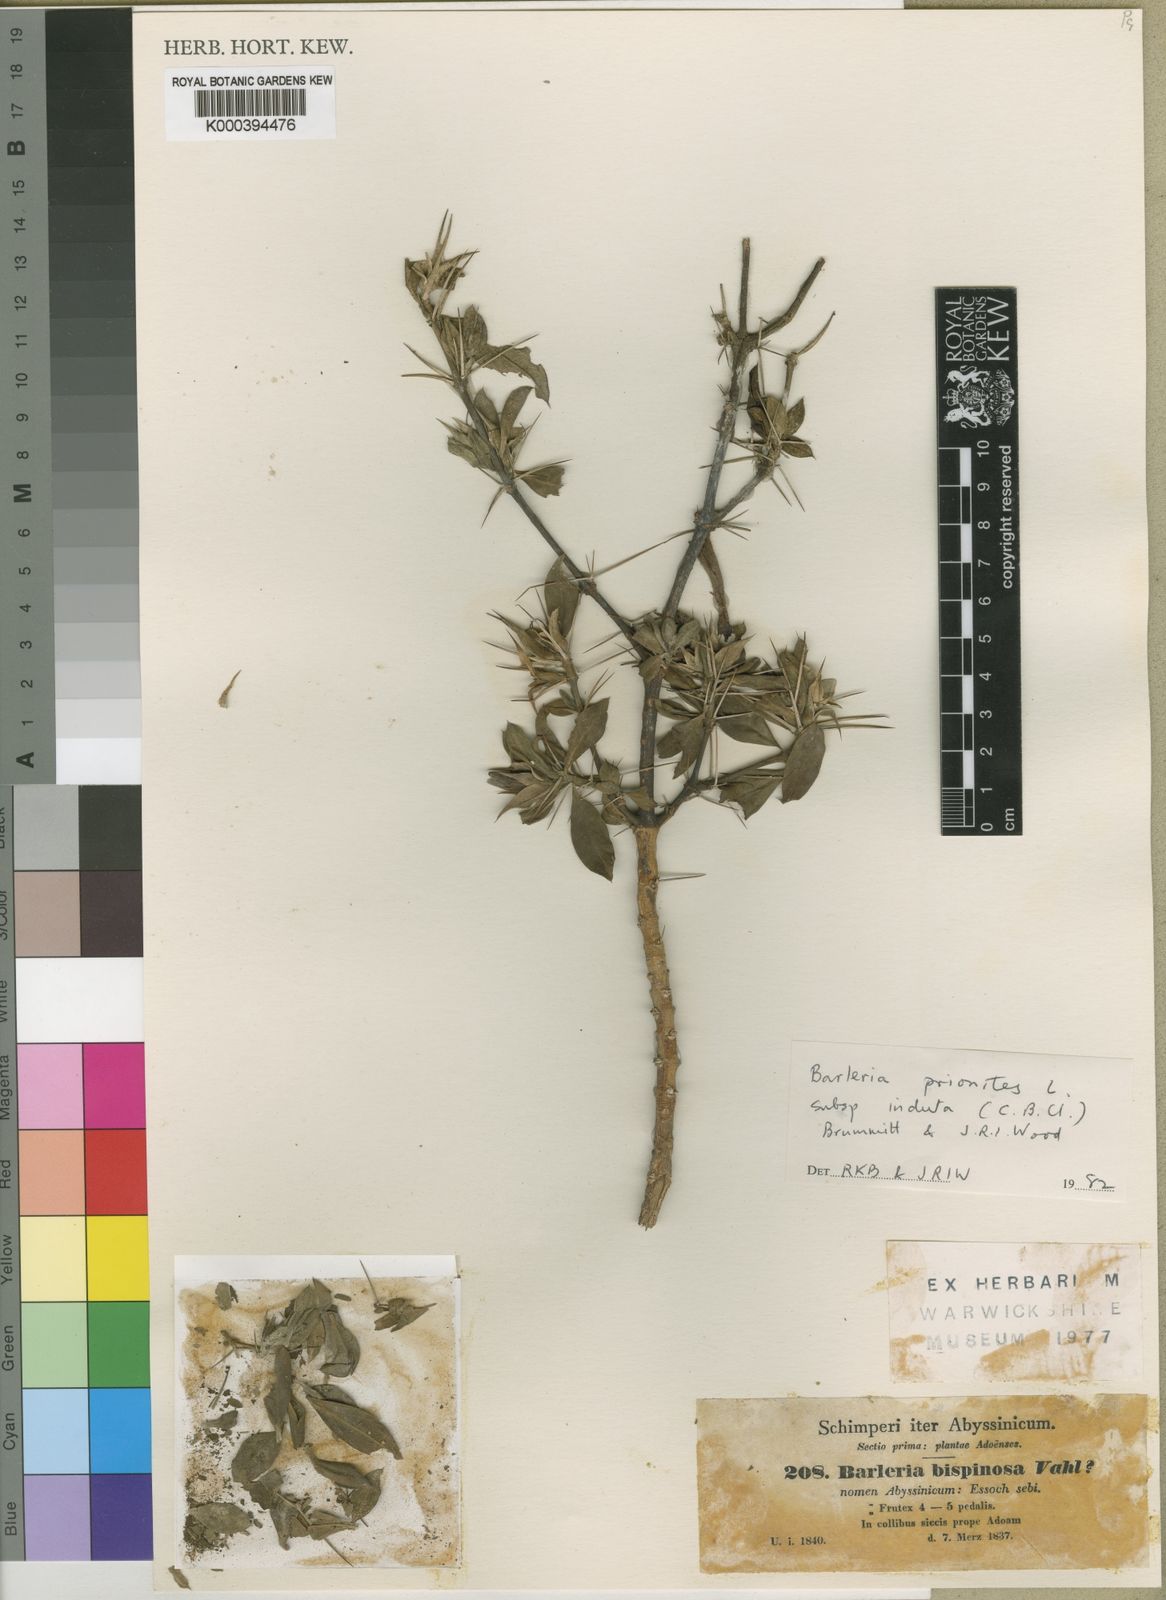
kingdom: Plantae
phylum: Tracheophyta
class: Magnoliopsida
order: Lamiales
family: Acanthaceae
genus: Barleria
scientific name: Barleria prionitis
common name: Barleria
